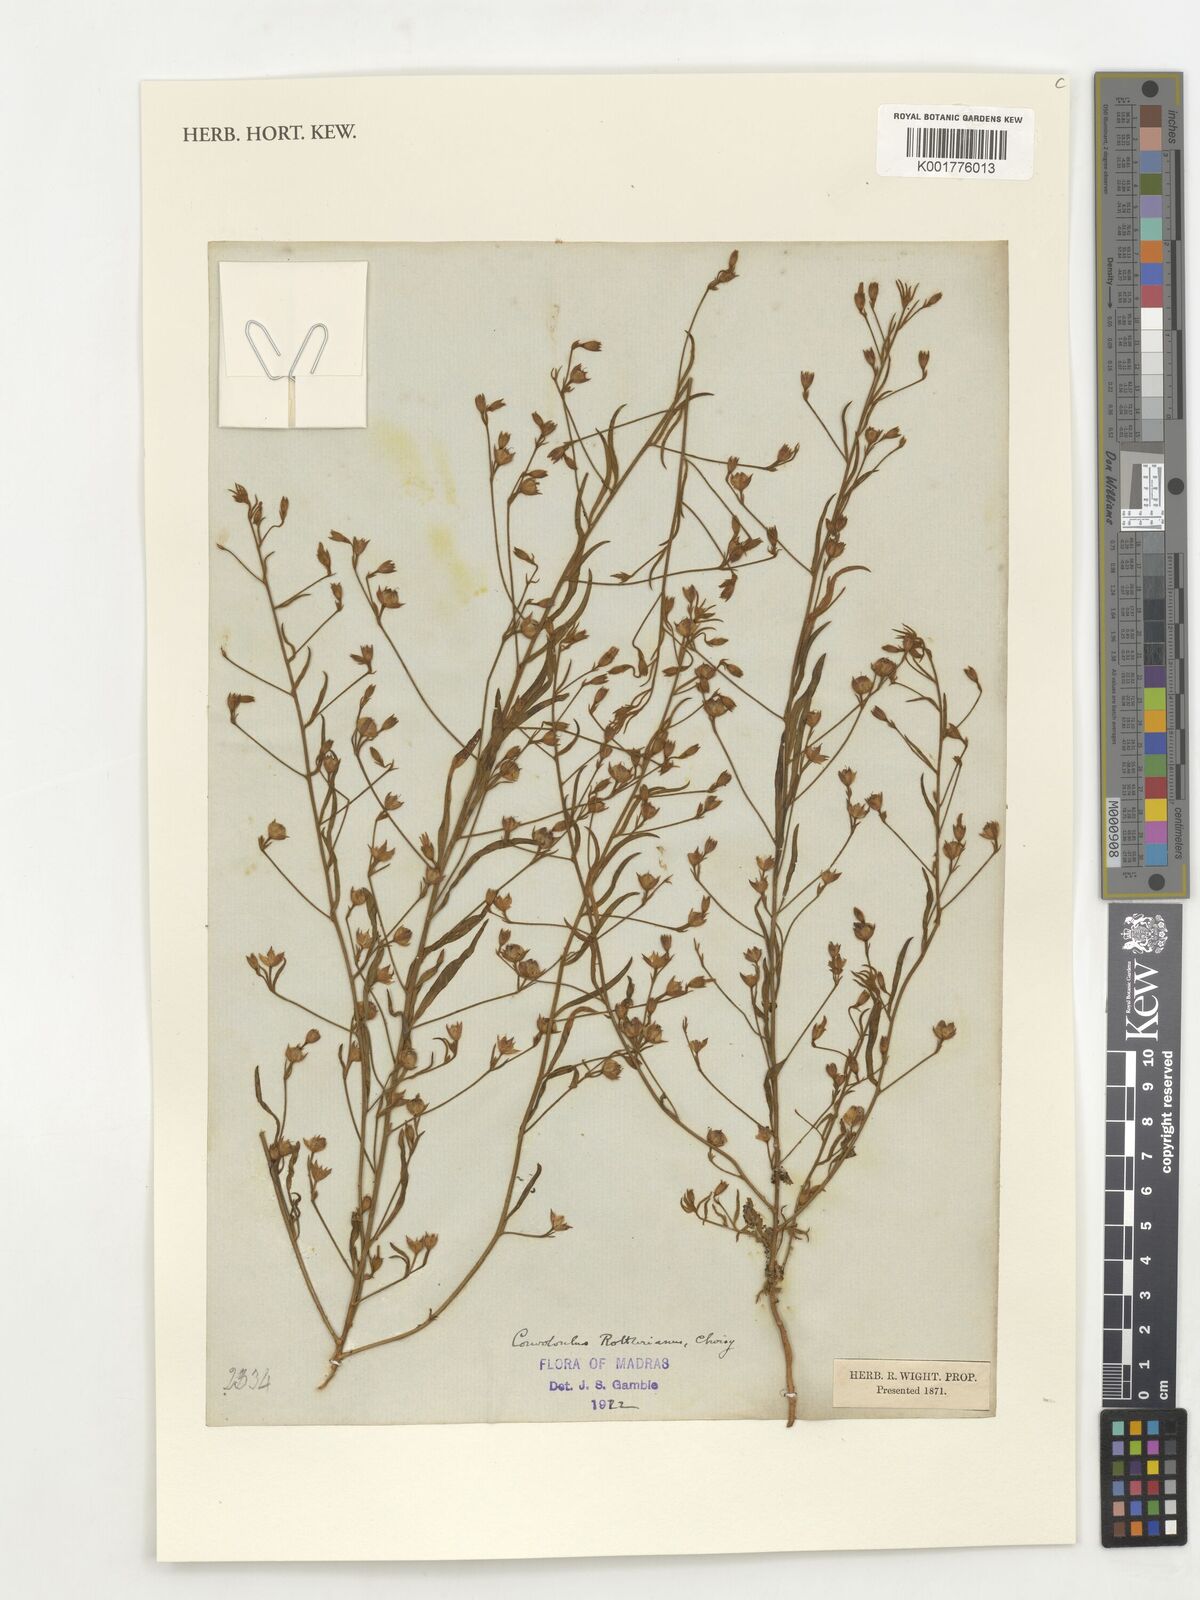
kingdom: Plantae
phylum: Tracheophyta
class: Magnoliopsida
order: Solanales
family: Convolvulaceae
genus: Convolvulus
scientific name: Convolvulus rottlerianus
